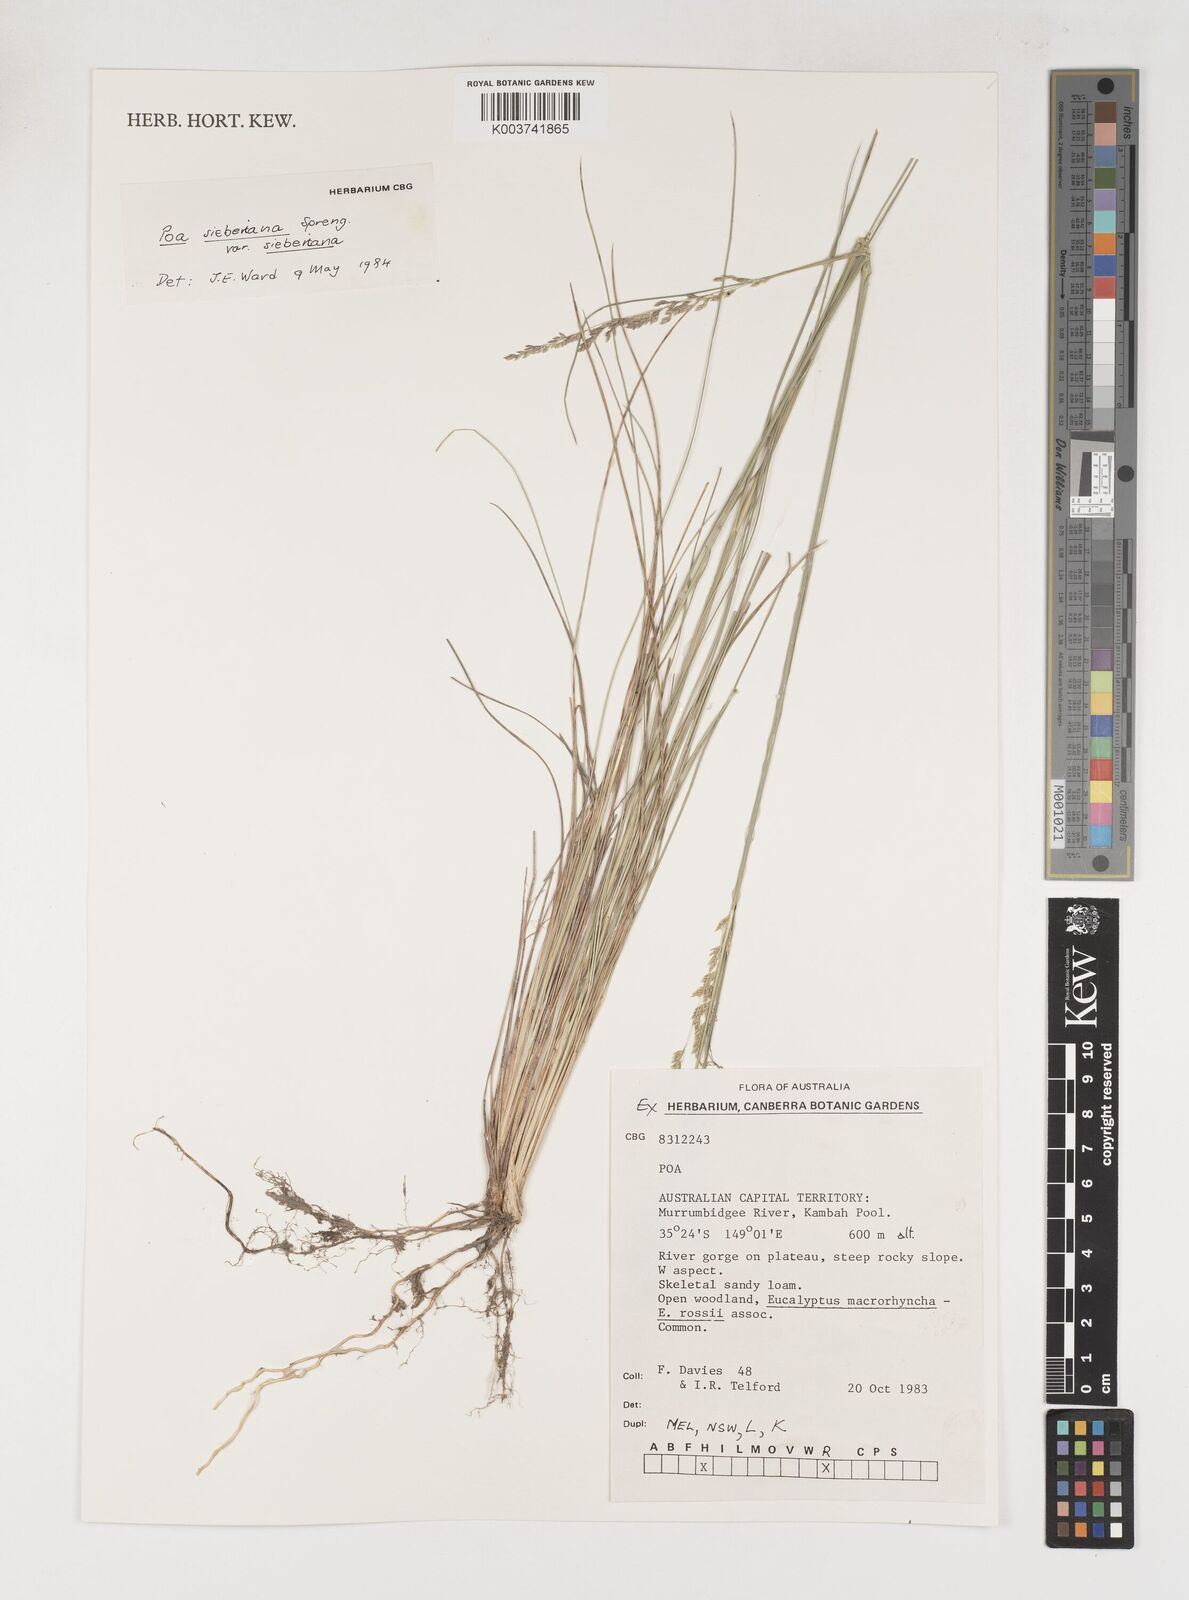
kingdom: Plantae
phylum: Tracheophyta
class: Liliopsida
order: Poales
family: Poaceae
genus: Poa
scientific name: Poa sieberiana
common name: Tussock poa
